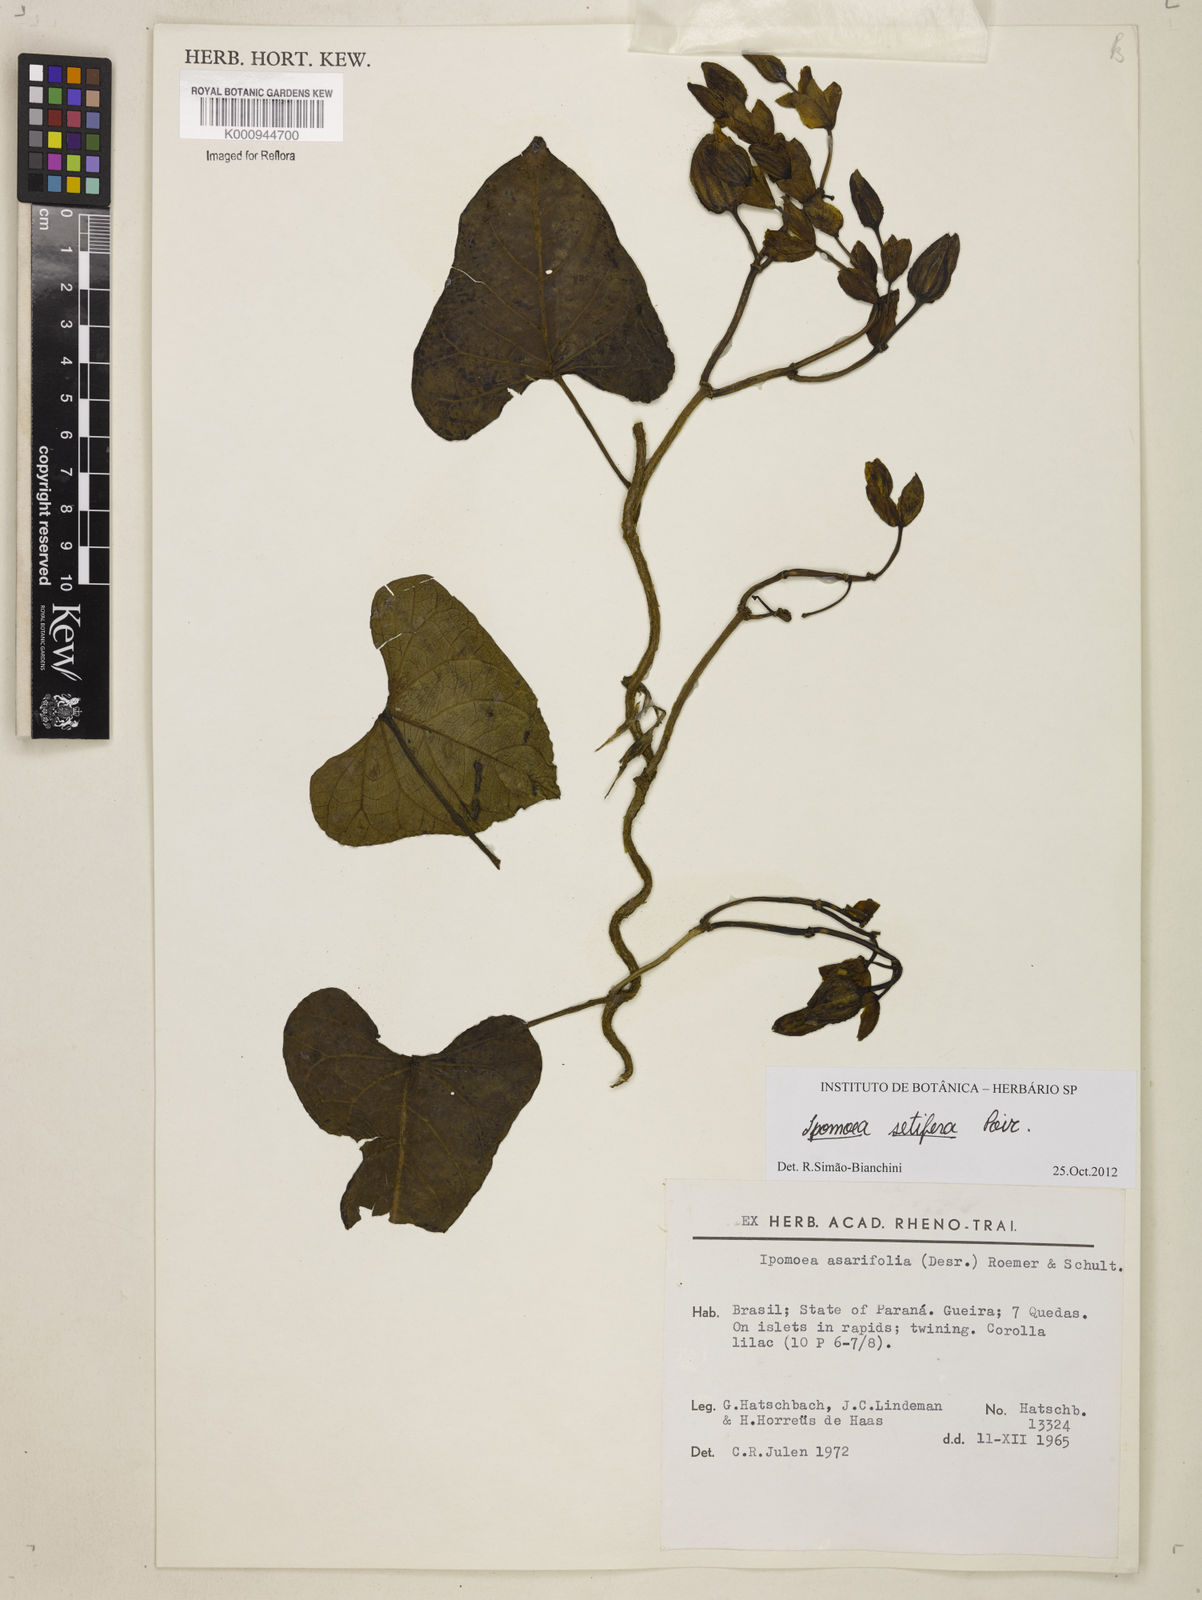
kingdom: Plantae
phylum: Tracheophyta
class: Magnoliopsida
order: Solanales
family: Convolvulaceae
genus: Ipomoea
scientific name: Ipomoea setifera
